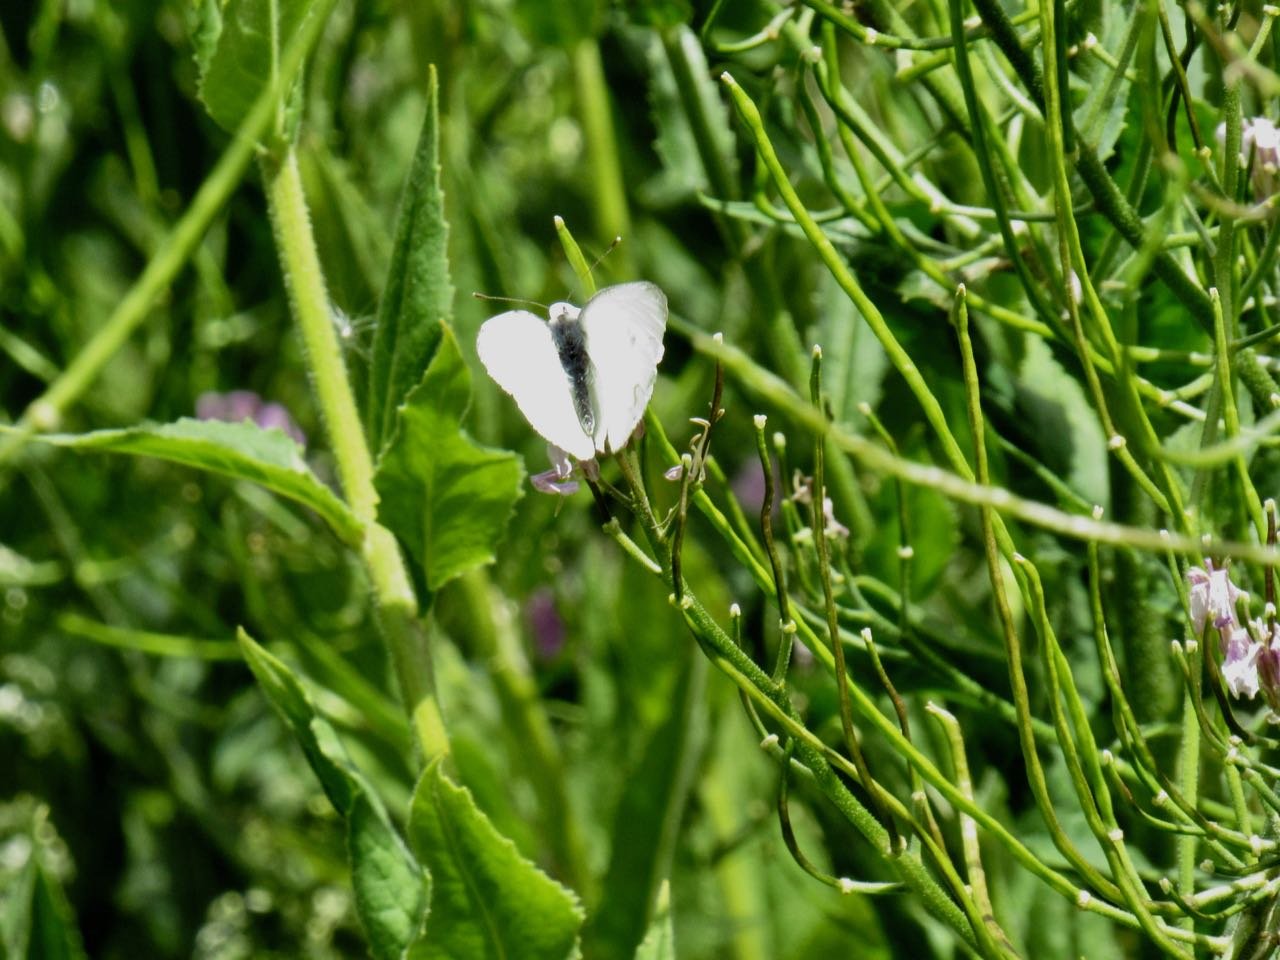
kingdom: Animalia
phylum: Arthropoda
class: Insecta
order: Lepidoptera
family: Pieridae
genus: Pieris
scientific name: Pieris rapae
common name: Cabbage White
